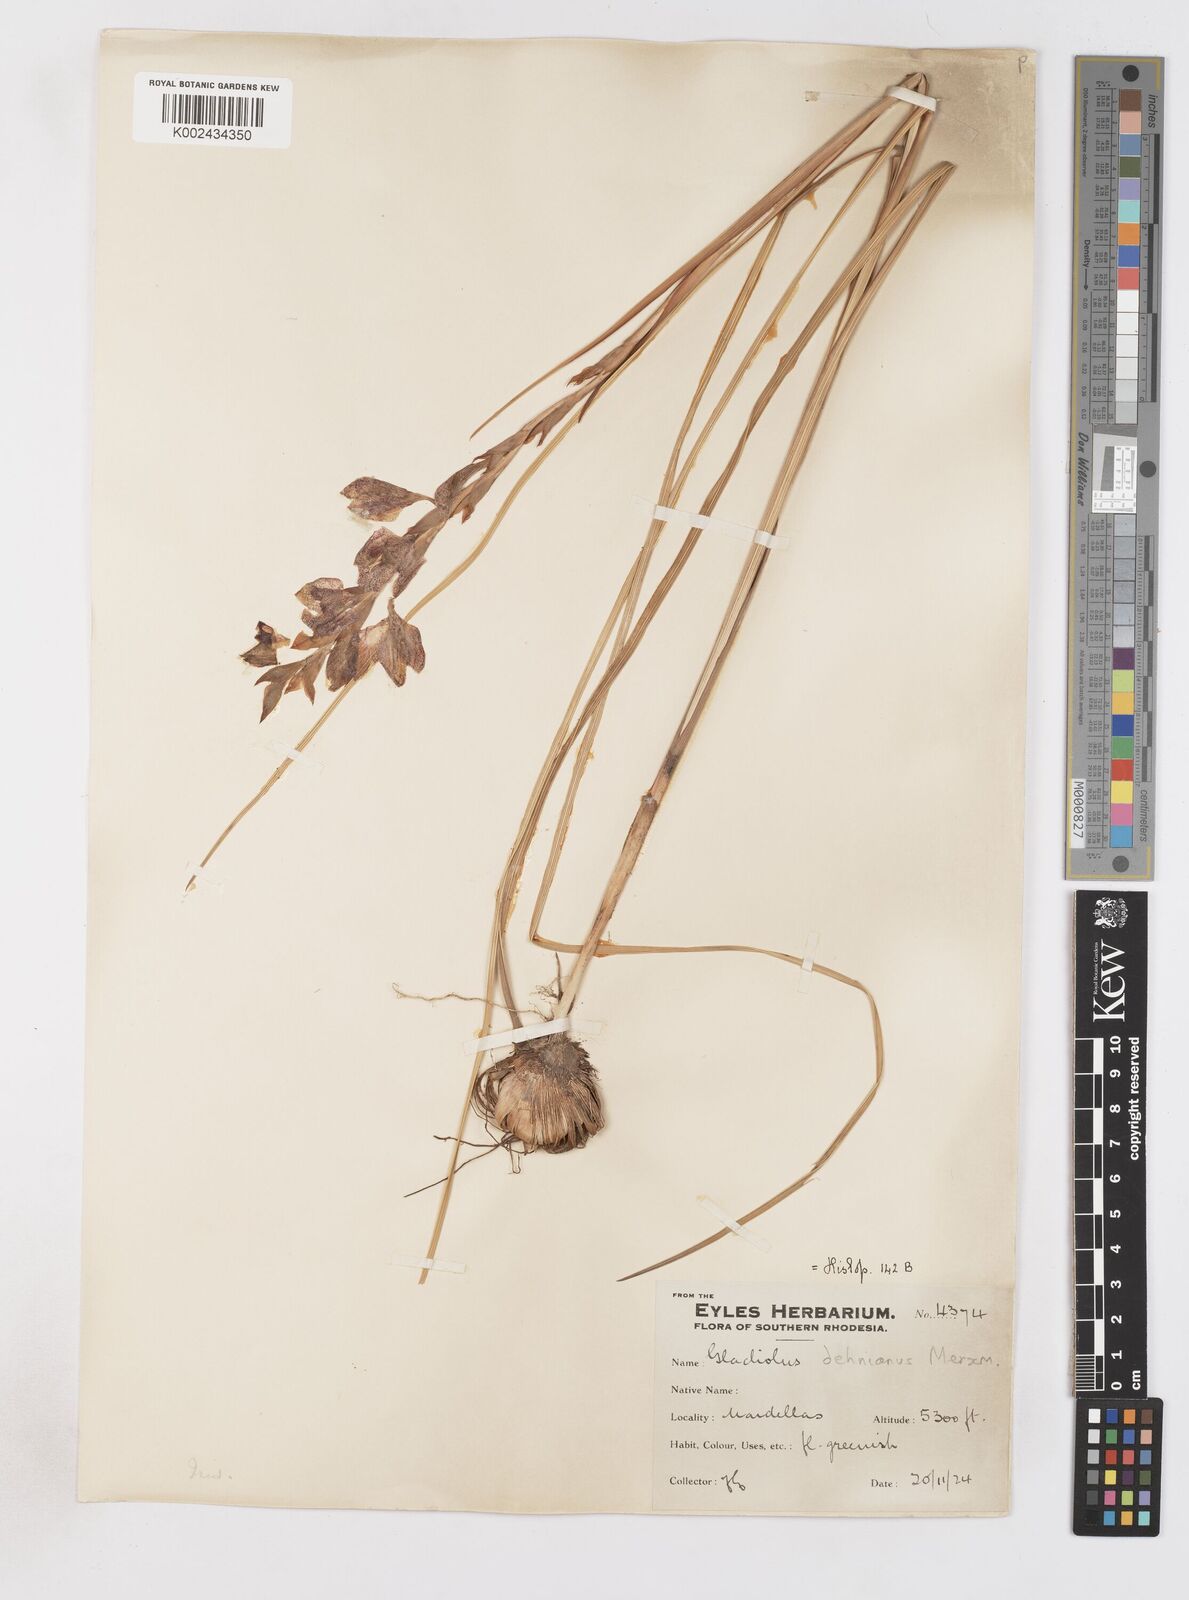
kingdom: Plantae
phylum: Tracheophyta
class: Liliopsida
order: Asparagales
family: Iridaceae
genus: Gladiolus
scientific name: Gladiolus sericeovillosus
